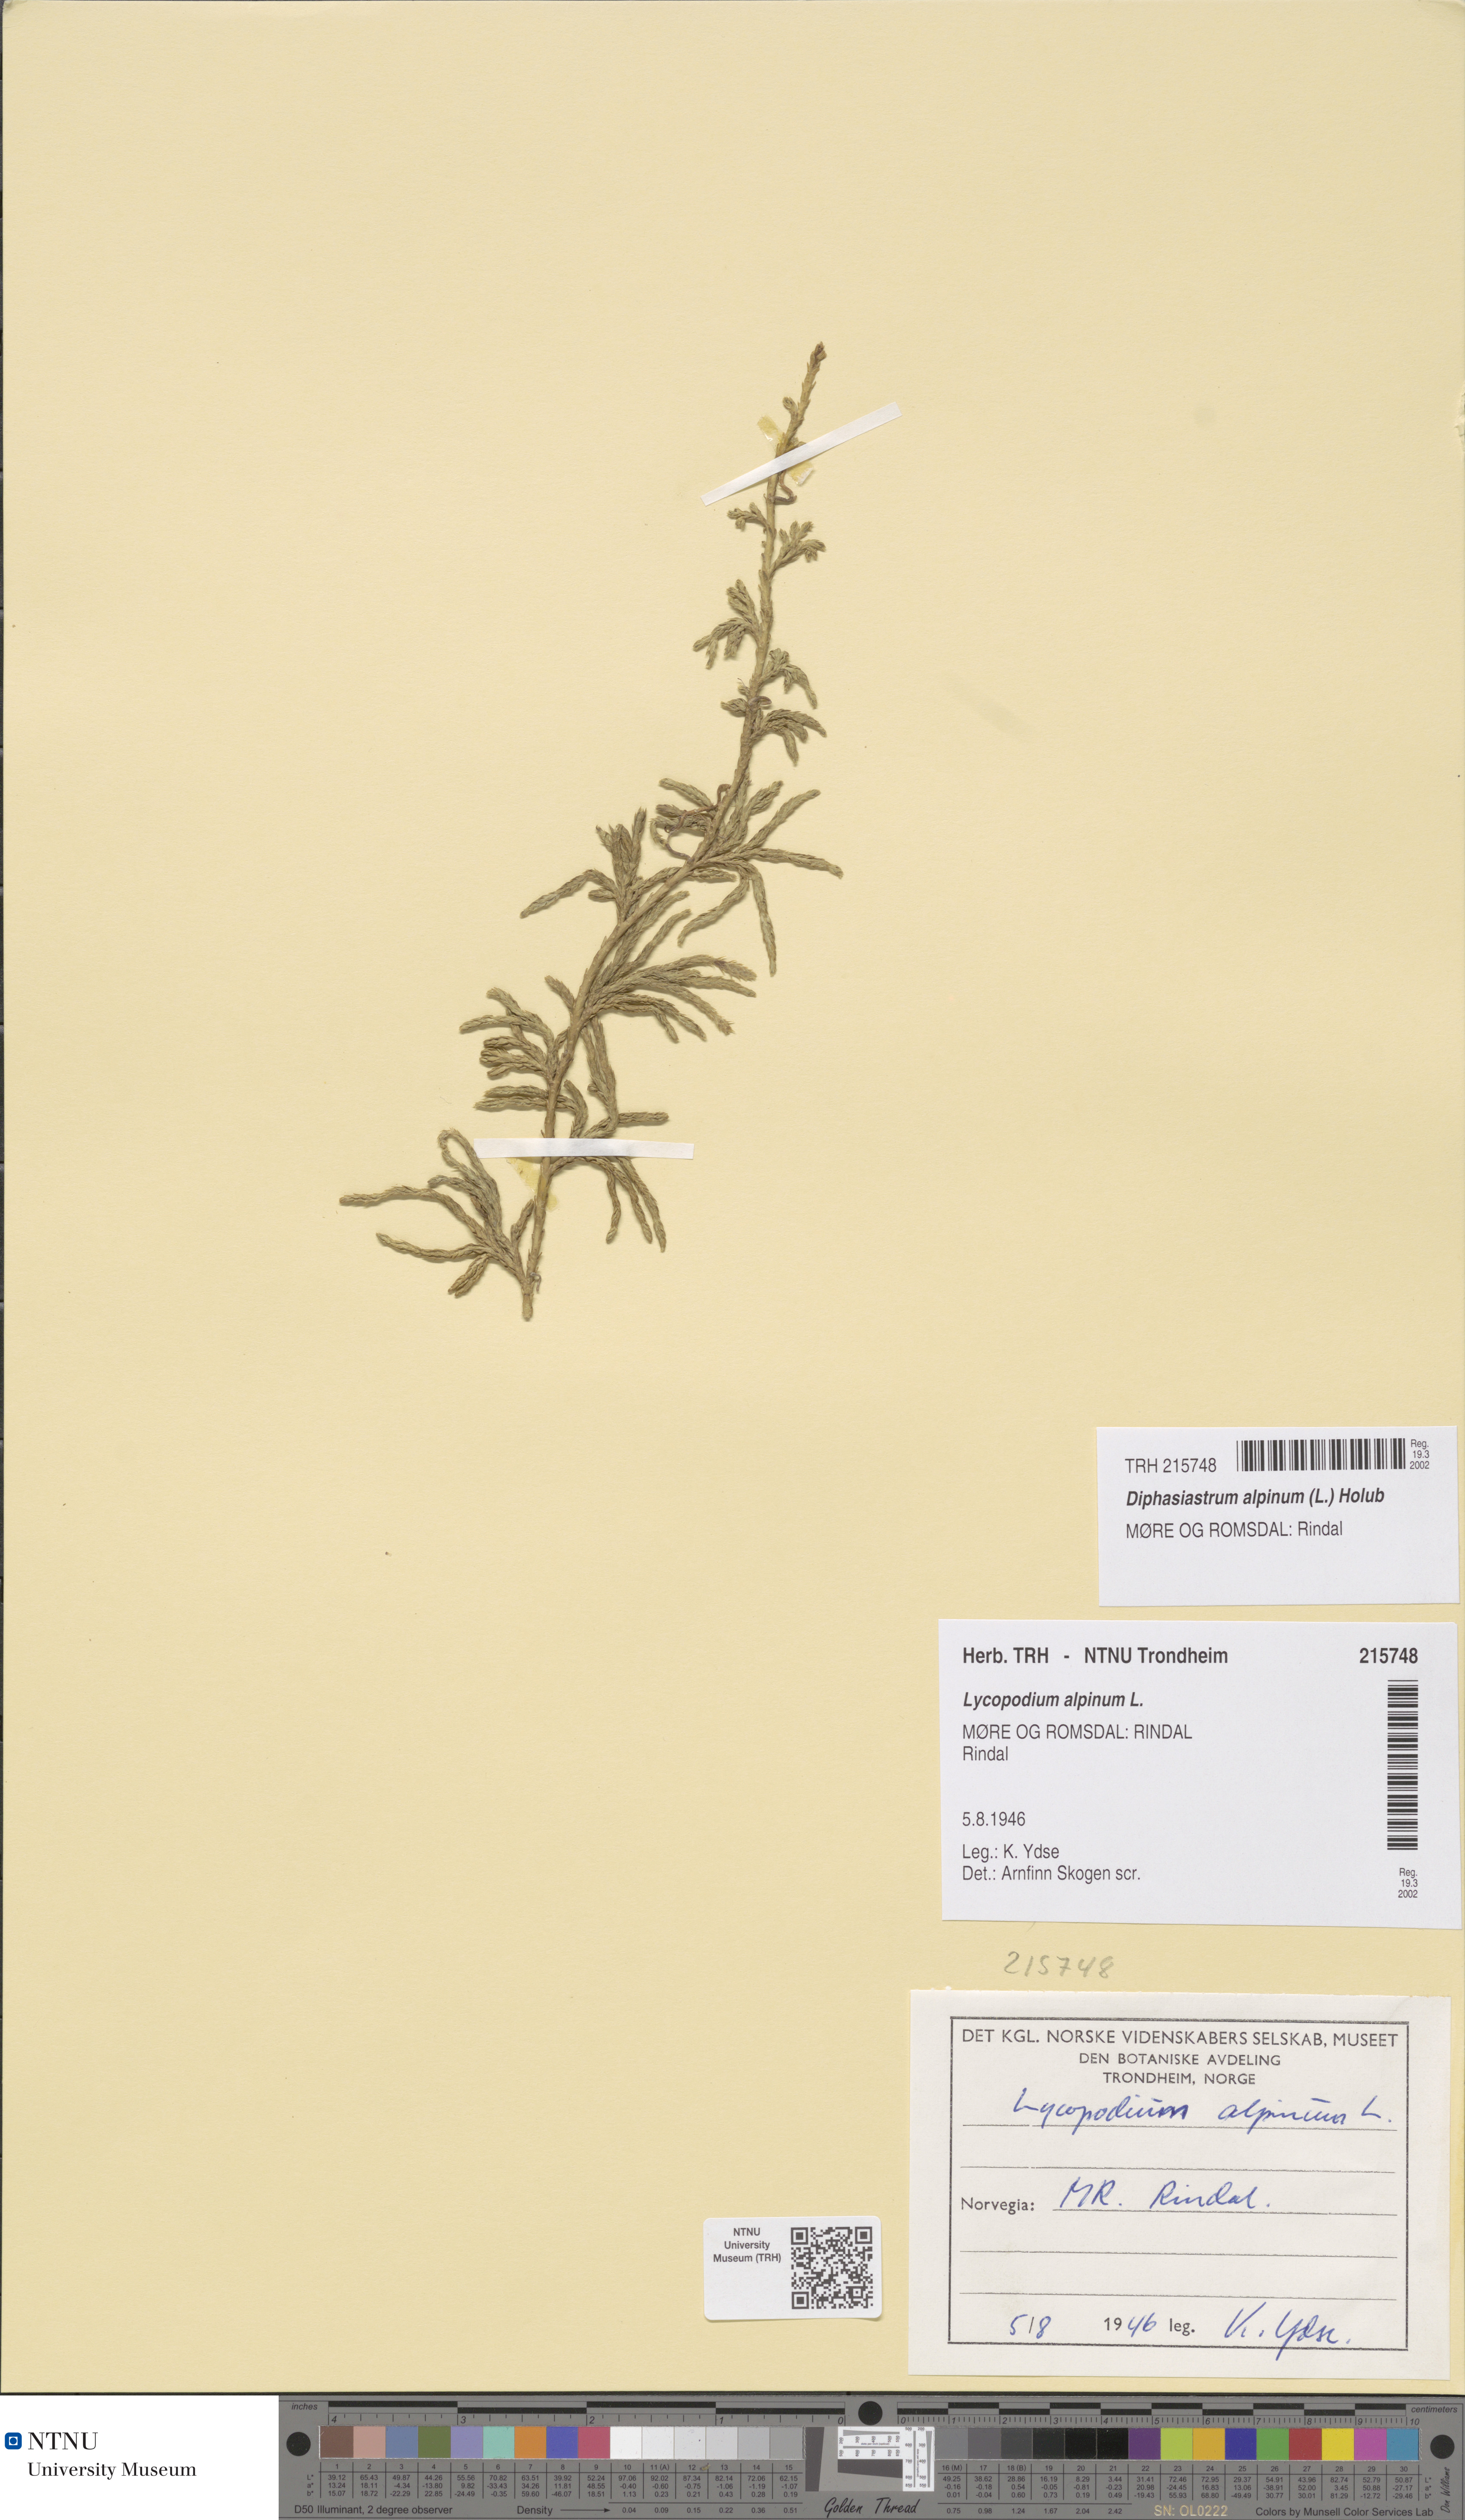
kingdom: Plantae
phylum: Tracheophyta
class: Lycopodiopsida
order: Lycopodiales
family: Lycopodiaceae
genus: Diphasiastrum
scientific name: Diphasiastrum alpinum
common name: Alpine clubmoss
